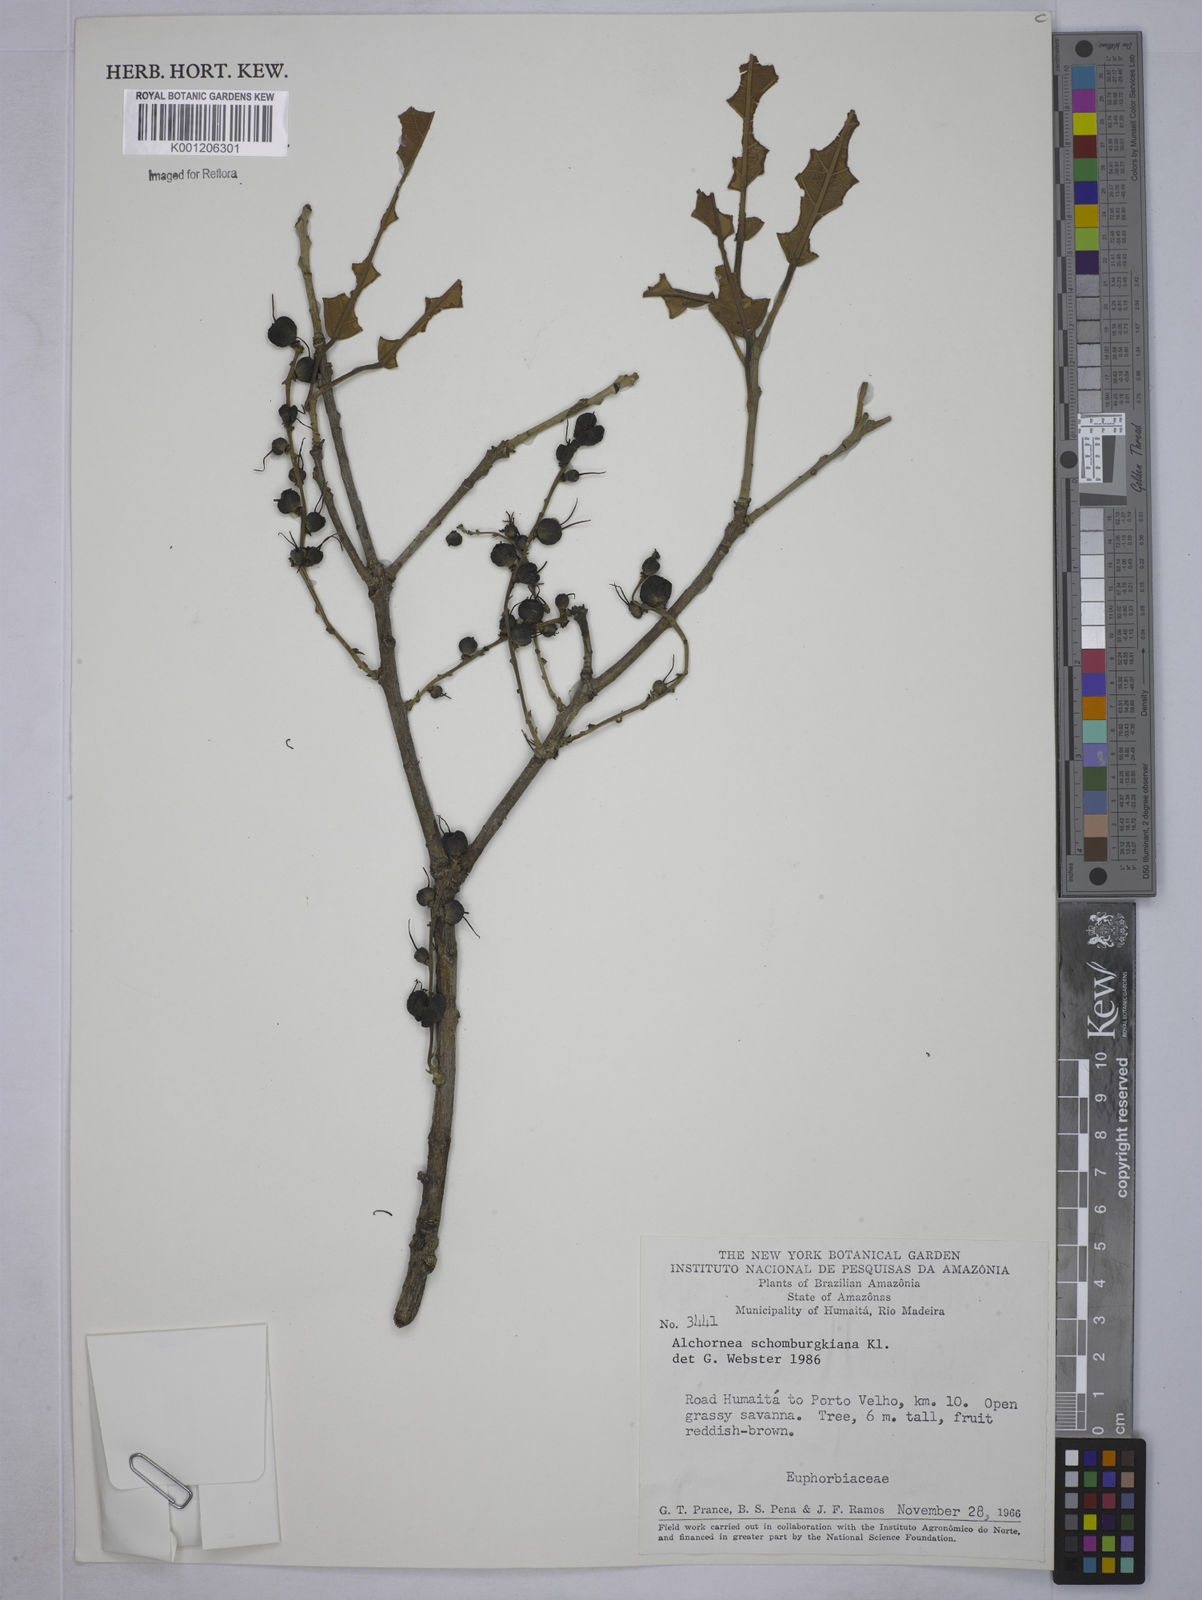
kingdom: Plantae
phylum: Tracheophyta
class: Magnoliopsida
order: Malpighiales
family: Euphorbiaceae
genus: Alchornea
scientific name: Alchornea discolor
